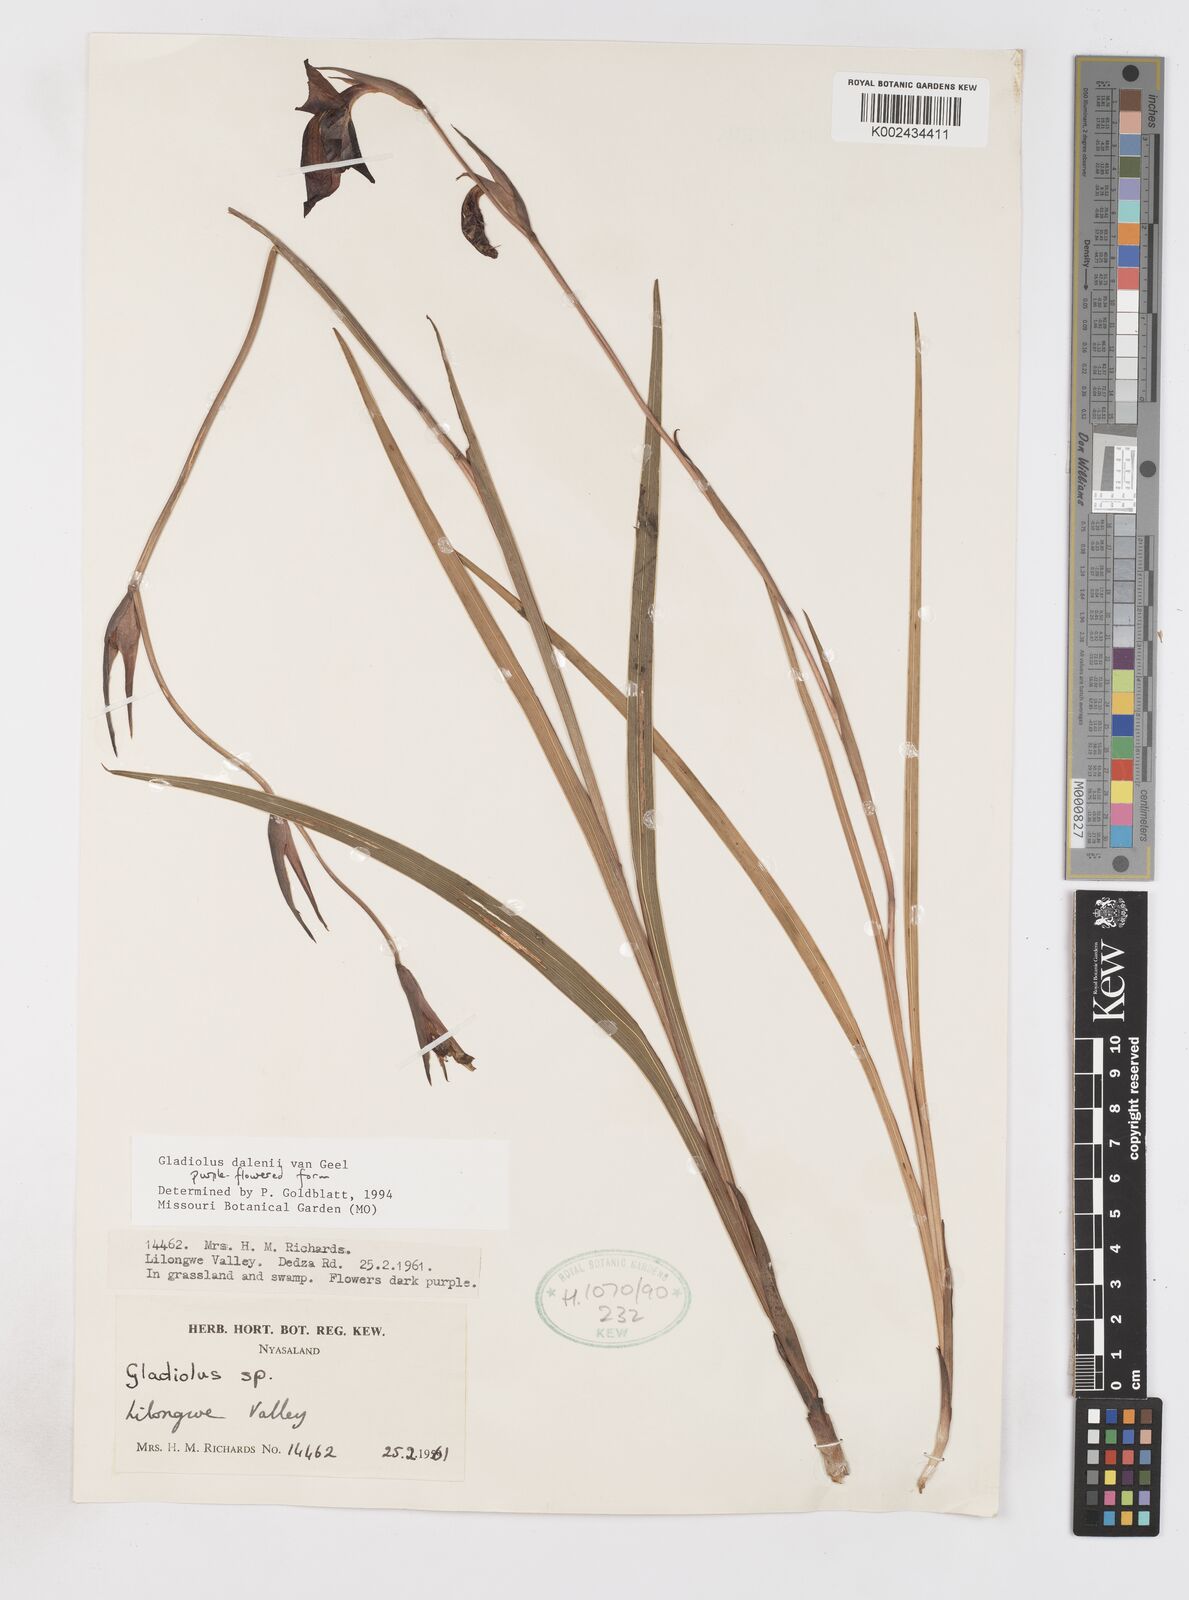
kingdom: Plantae
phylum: Tracheophyta
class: Liliopsida
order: Asparagales
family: Iridaceae
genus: Gladiolus
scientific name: Gladiolus dalenii
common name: Cornflag
